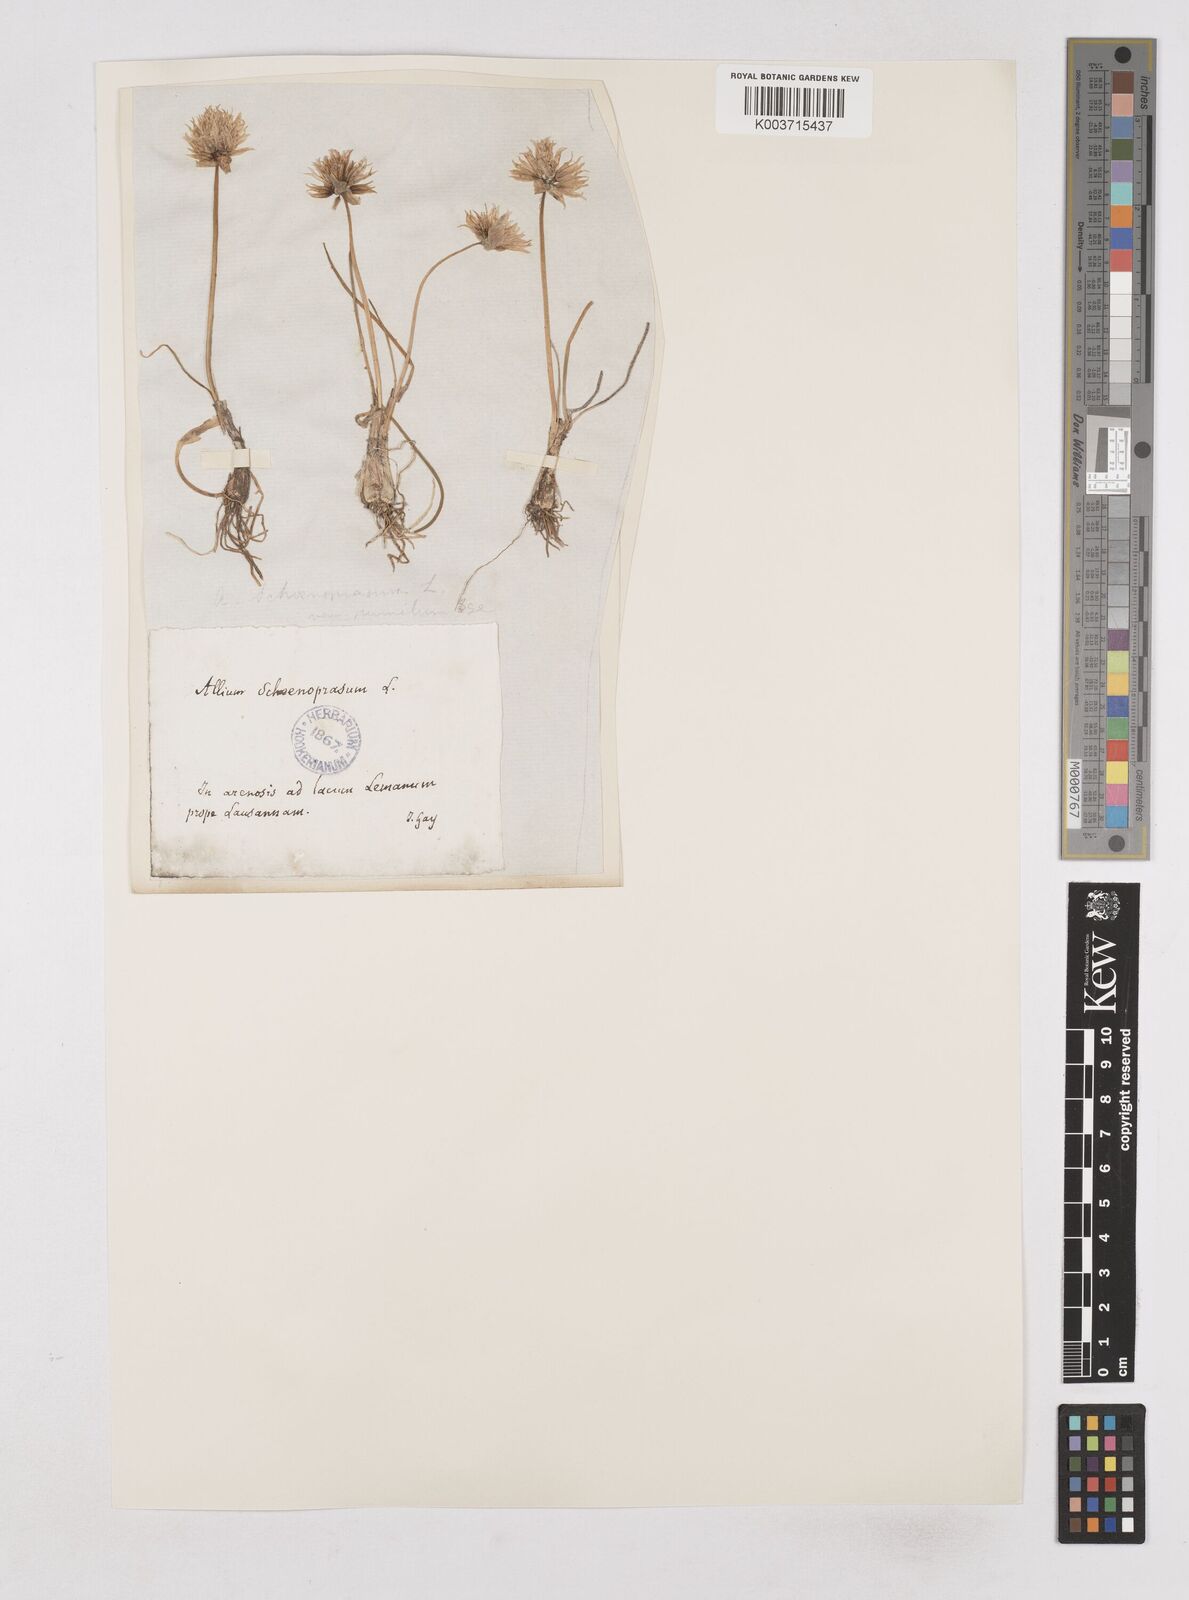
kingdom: Plantae
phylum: Tracheophyta
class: Liliopsida
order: Asparagales
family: Amaryllidaceae
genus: Allium
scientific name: Allium schoenoprasum
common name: Chives
